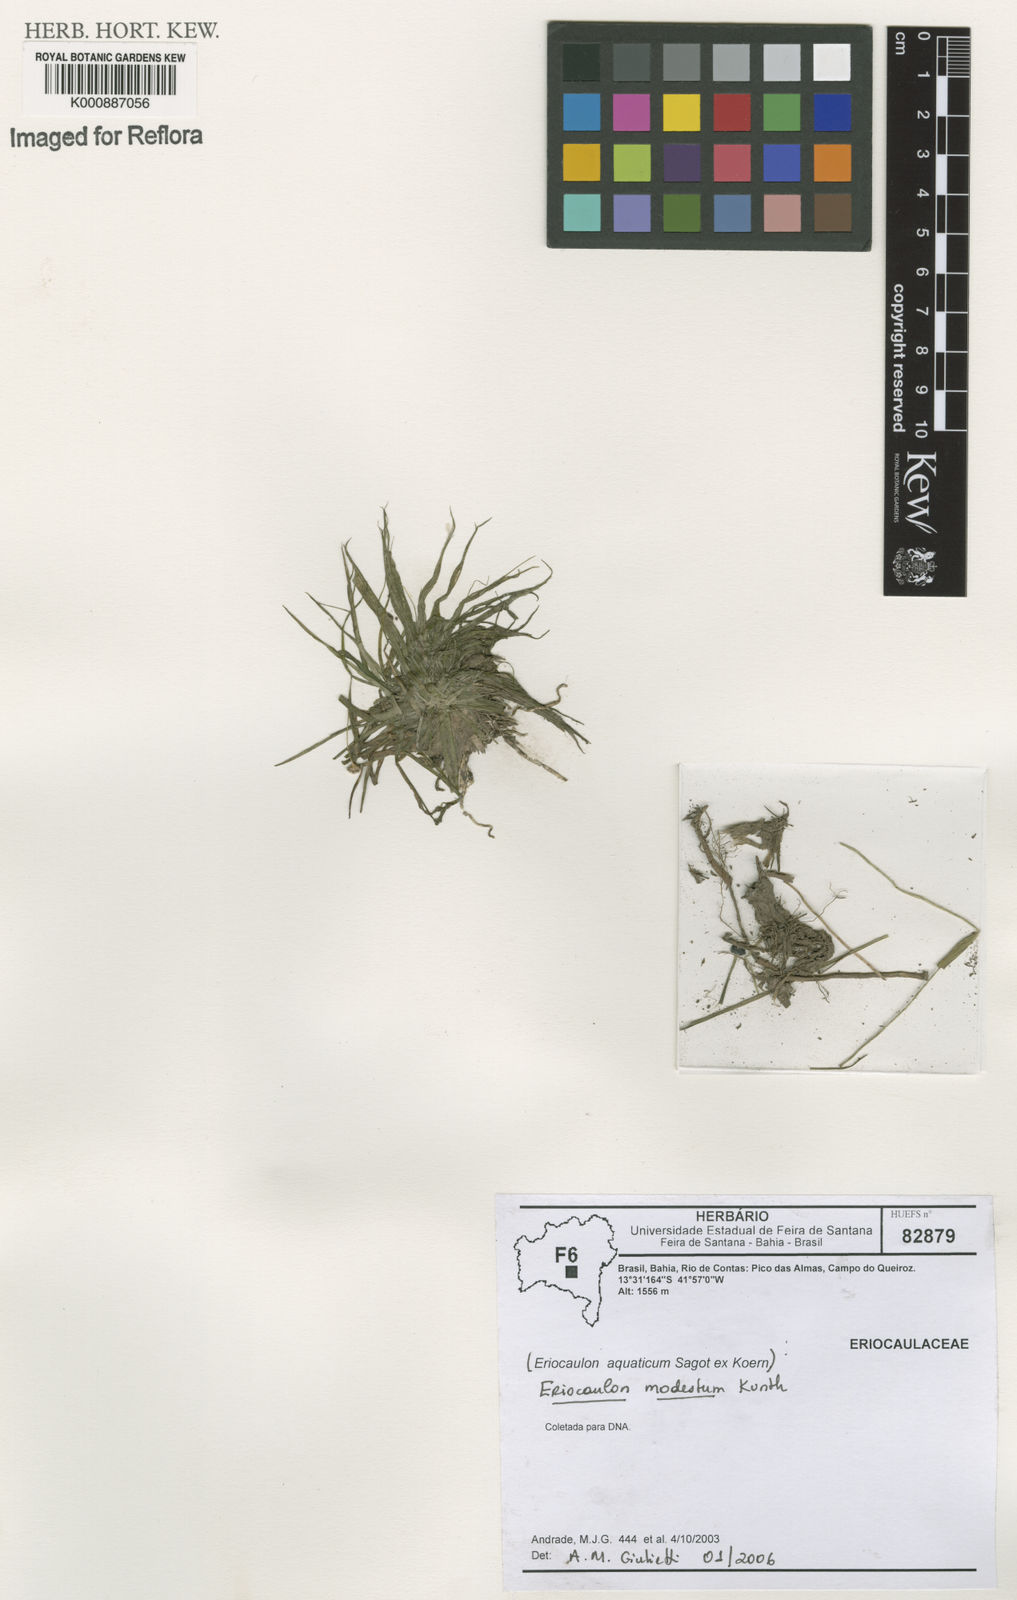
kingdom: Plantae
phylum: Tracheophyta
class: Liliopsida
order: Poales
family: Eriocaulaceae
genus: Eriocaulon
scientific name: Eriocaulon modestum
